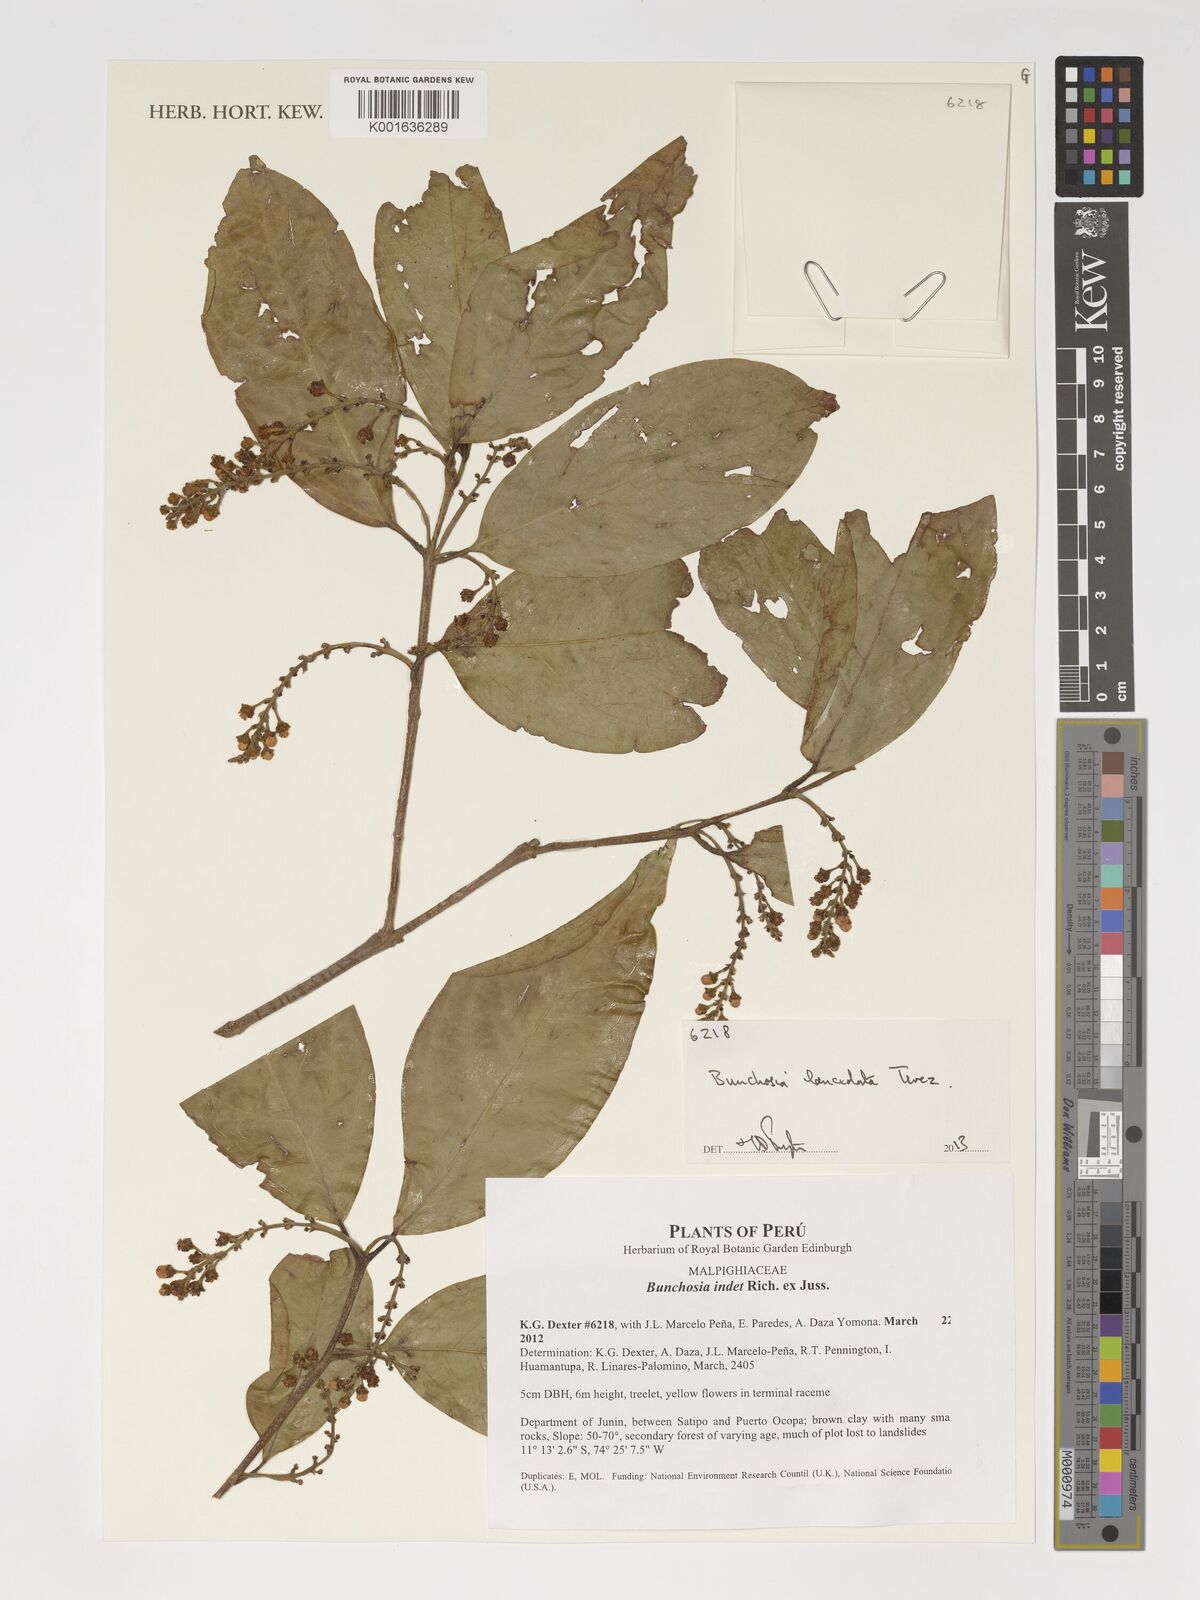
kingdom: Plantae
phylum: Tracheophyta
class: Magnoliopsida
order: Malpighiales
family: Malpighiaceae
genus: Bunchosia
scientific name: Bunchosia lindeniana
